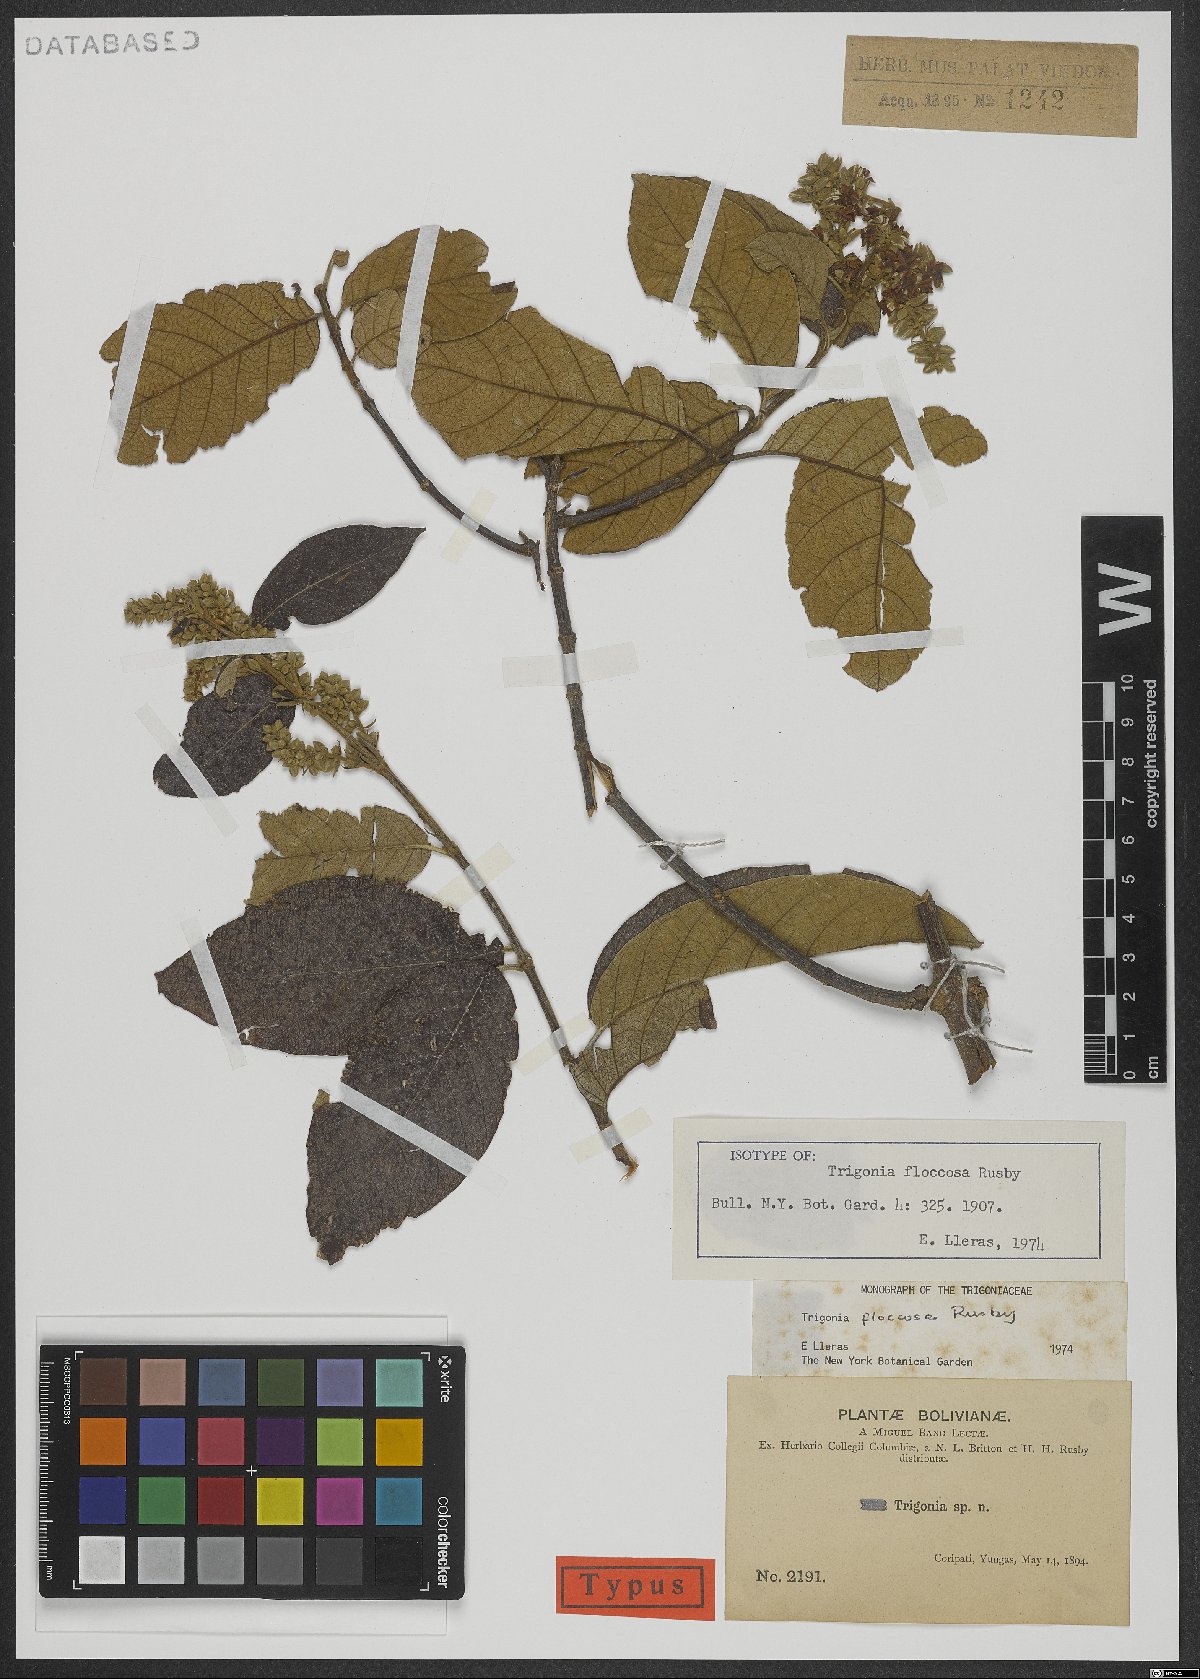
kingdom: Plantae
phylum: Tracheophyta
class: Magnoliopsida
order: Malpighiales
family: Trigoniaceae
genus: Trigonia
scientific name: Trigonia floccosa
